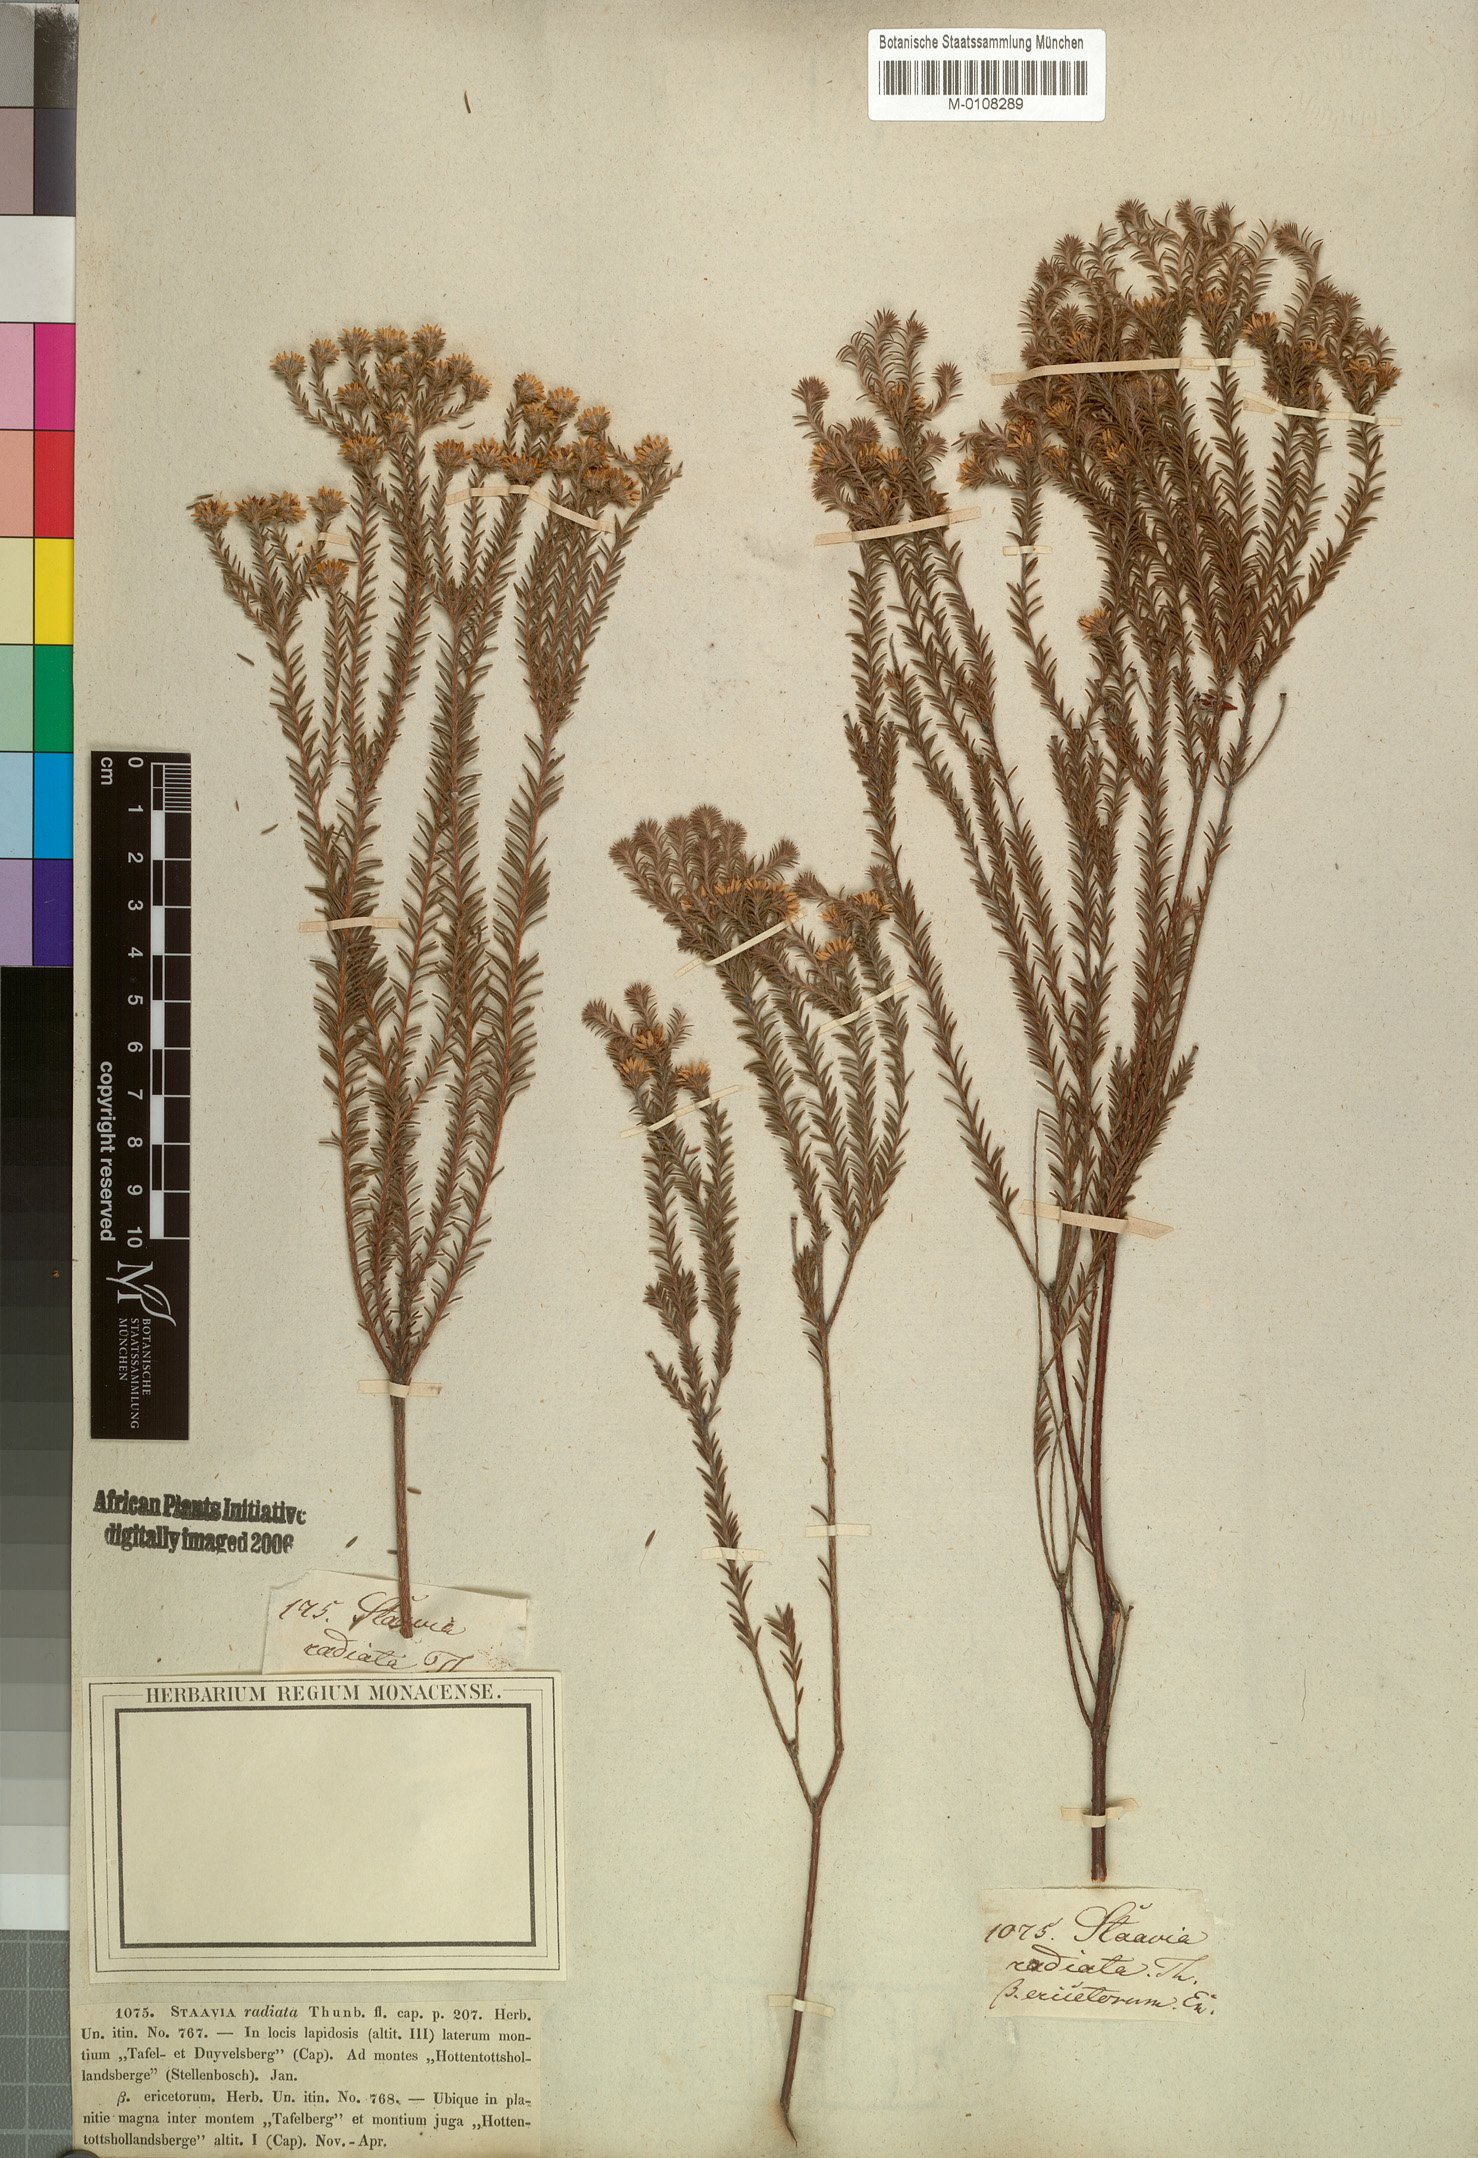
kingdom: Plantae
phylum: Tracheophyta
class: Magnoliopsida
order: Bruniales
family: Bruniaceae
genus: Staavia
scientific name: Staavia radiata
